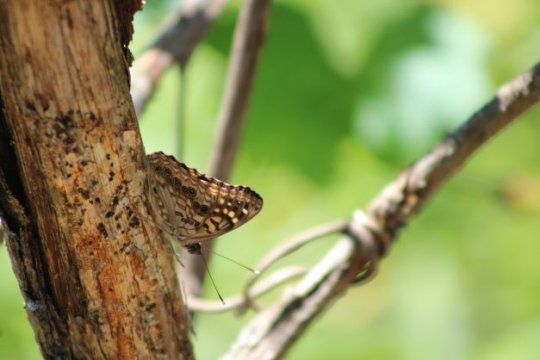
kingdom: Animalia
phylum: Arthropoda
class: Insecta
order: Lepidoptera
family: Nymphalidae
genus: Asterocampa
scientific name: Asterocampa celtis
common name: Hackberry Emperor
